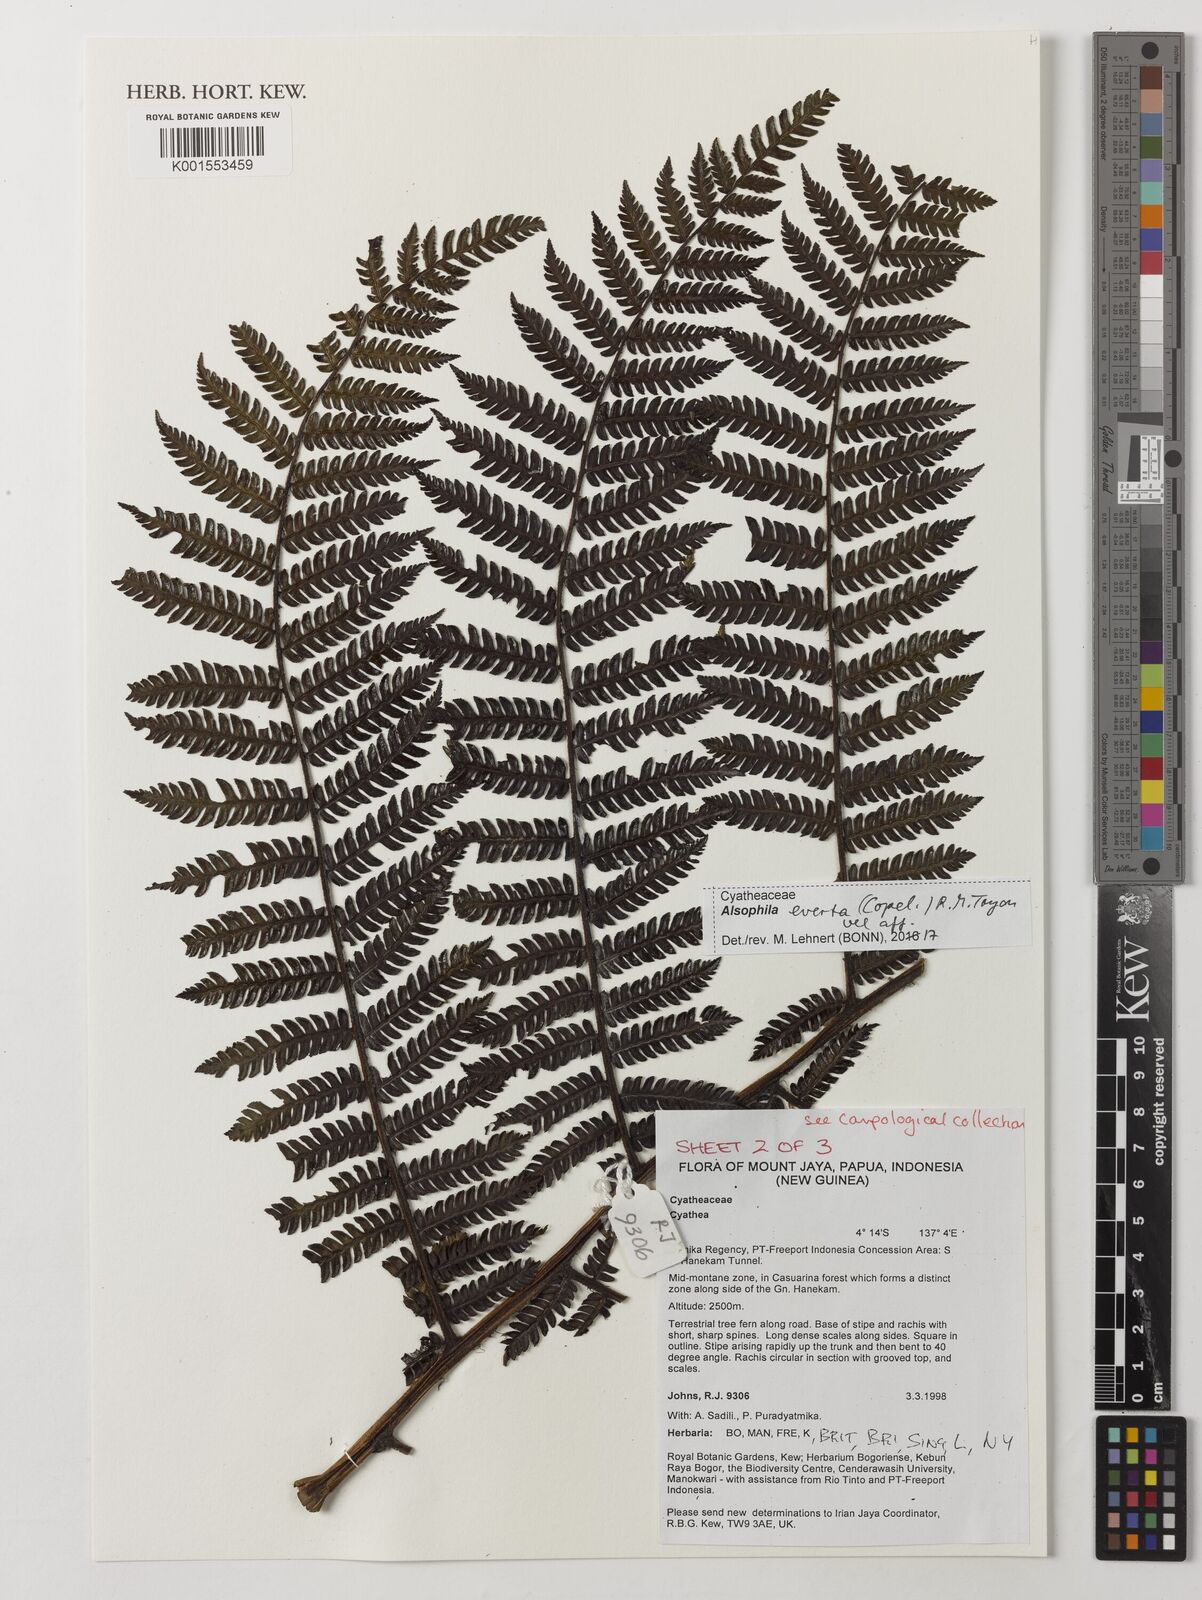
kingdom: Plantae
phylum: Tracheophyta
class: Polypodiopsida
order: Cyatheales
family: Cyatheaceae
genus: Alsophila
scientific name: Alsophila everta
